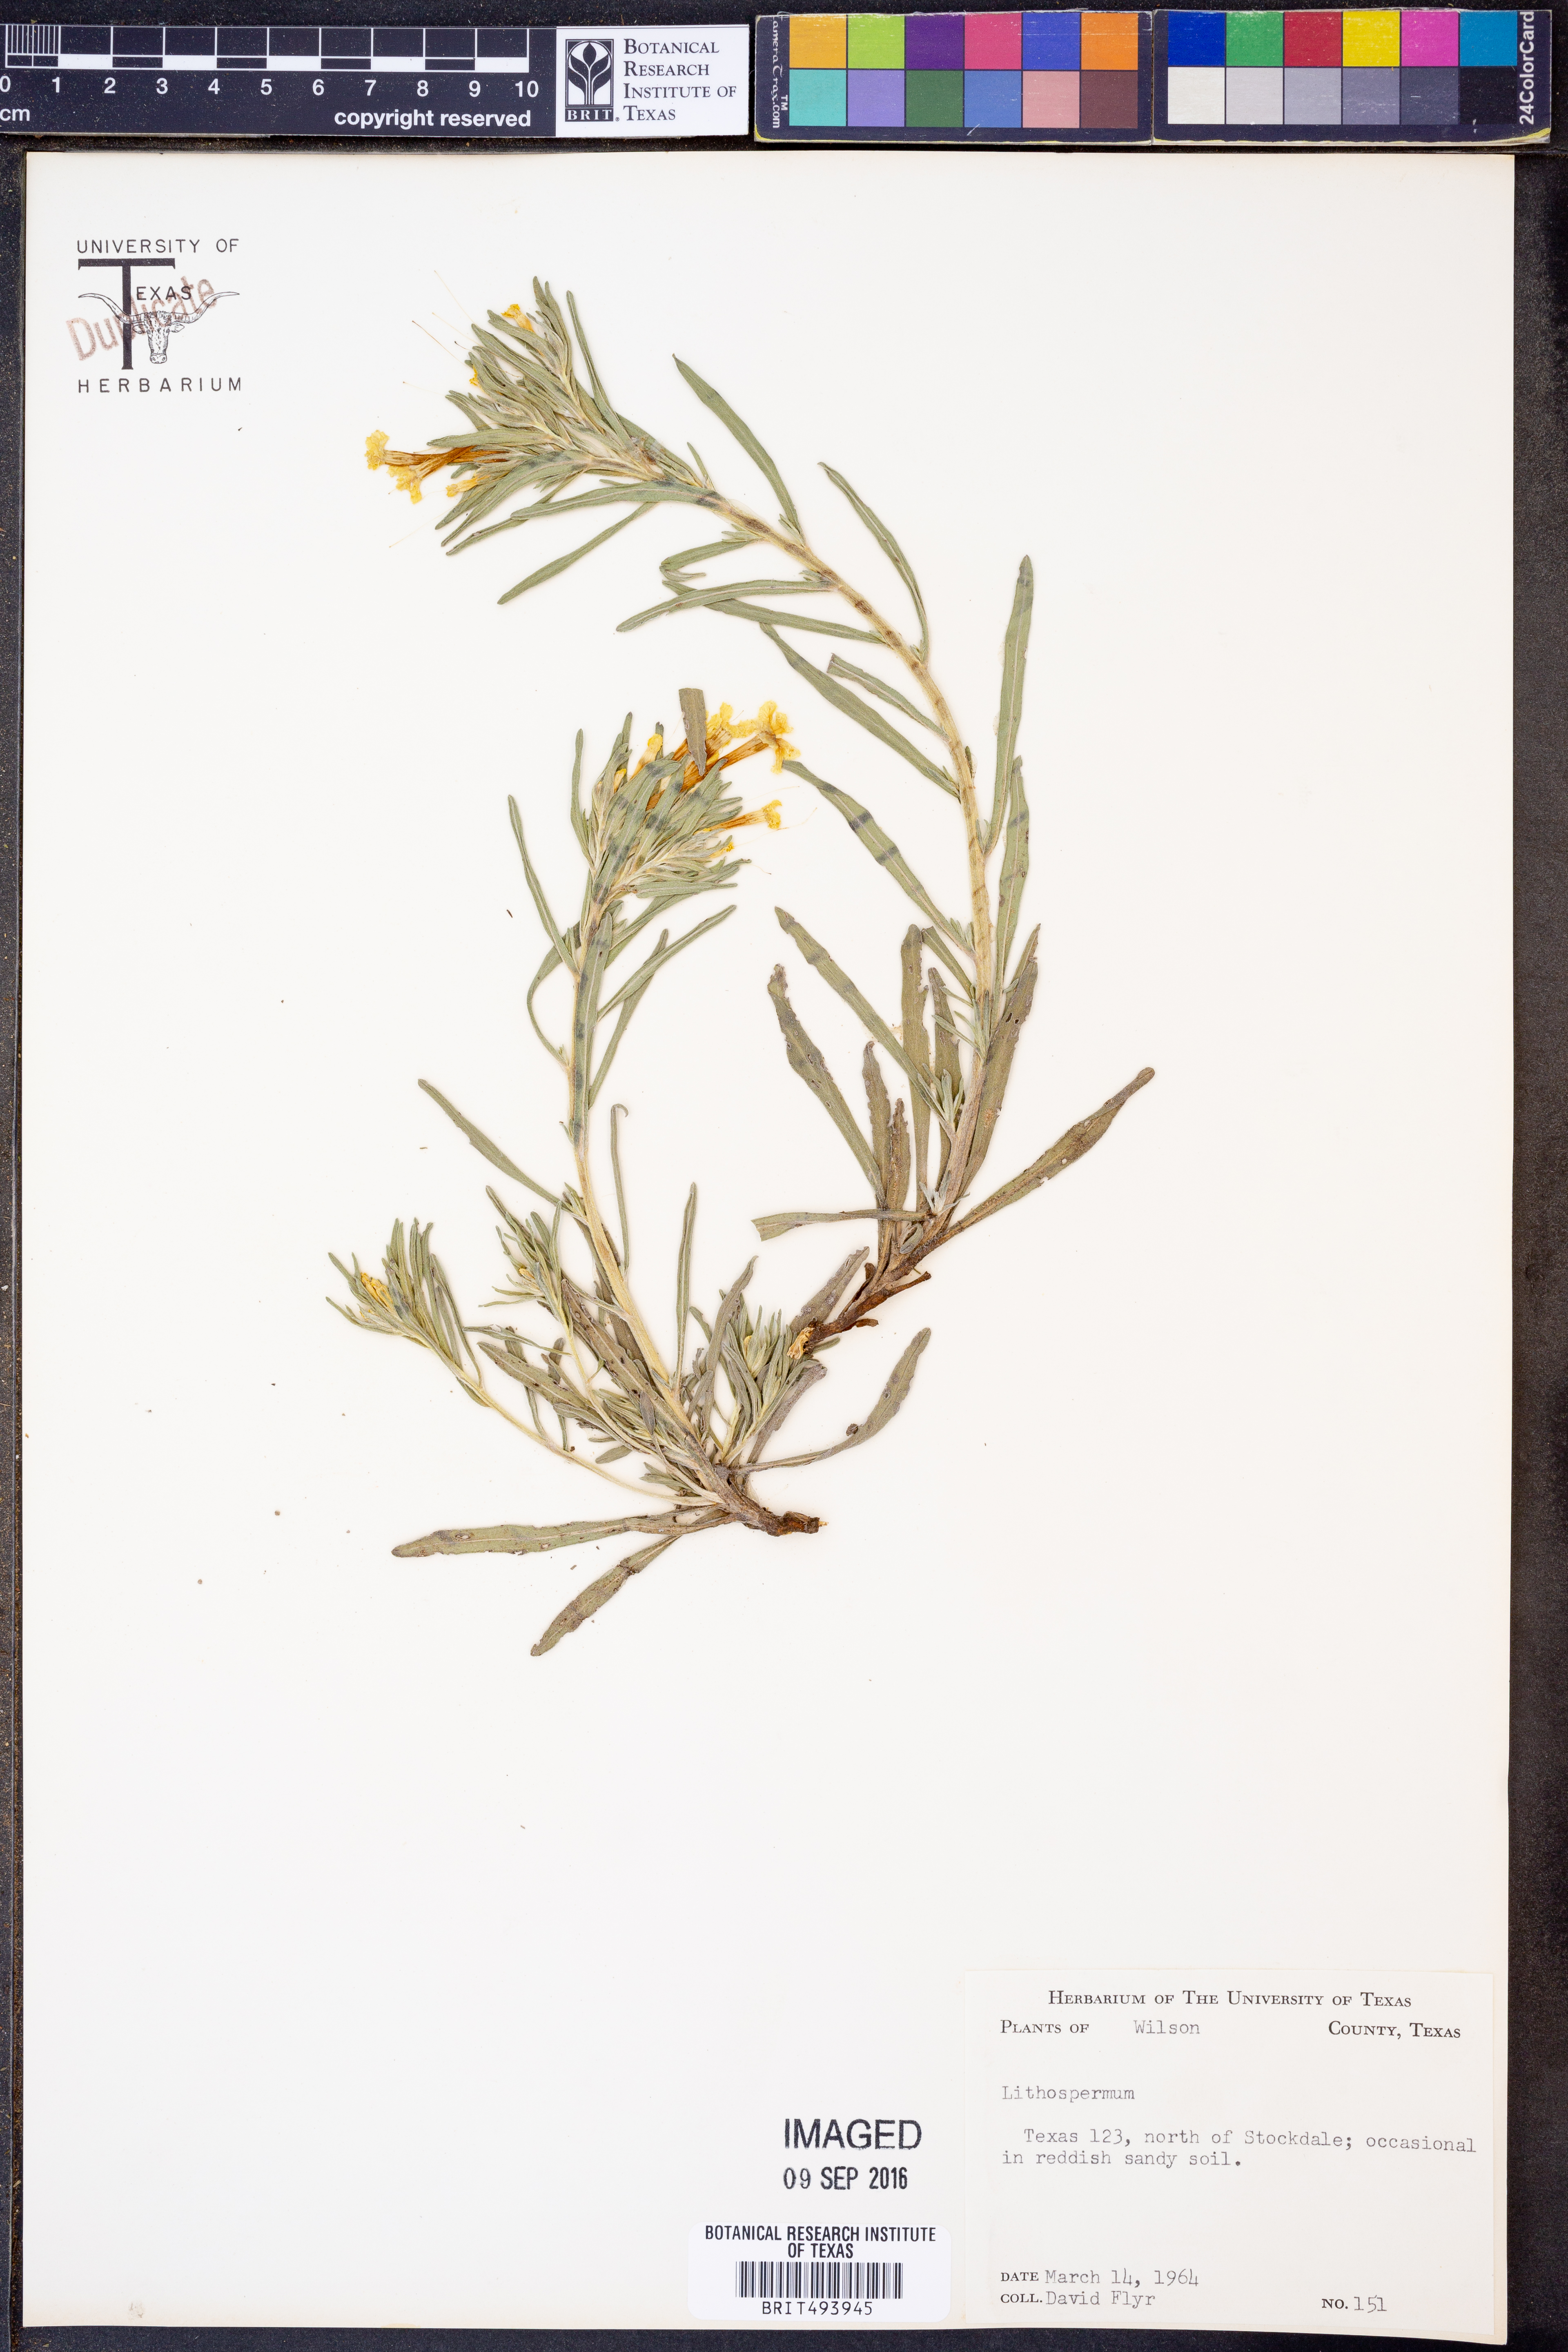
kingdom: Plantae
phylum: Tracheophyta
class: Magnoliopsida
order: Boraginales
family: Boraginaceae
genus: Lithospermum
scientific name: Lithospermum
